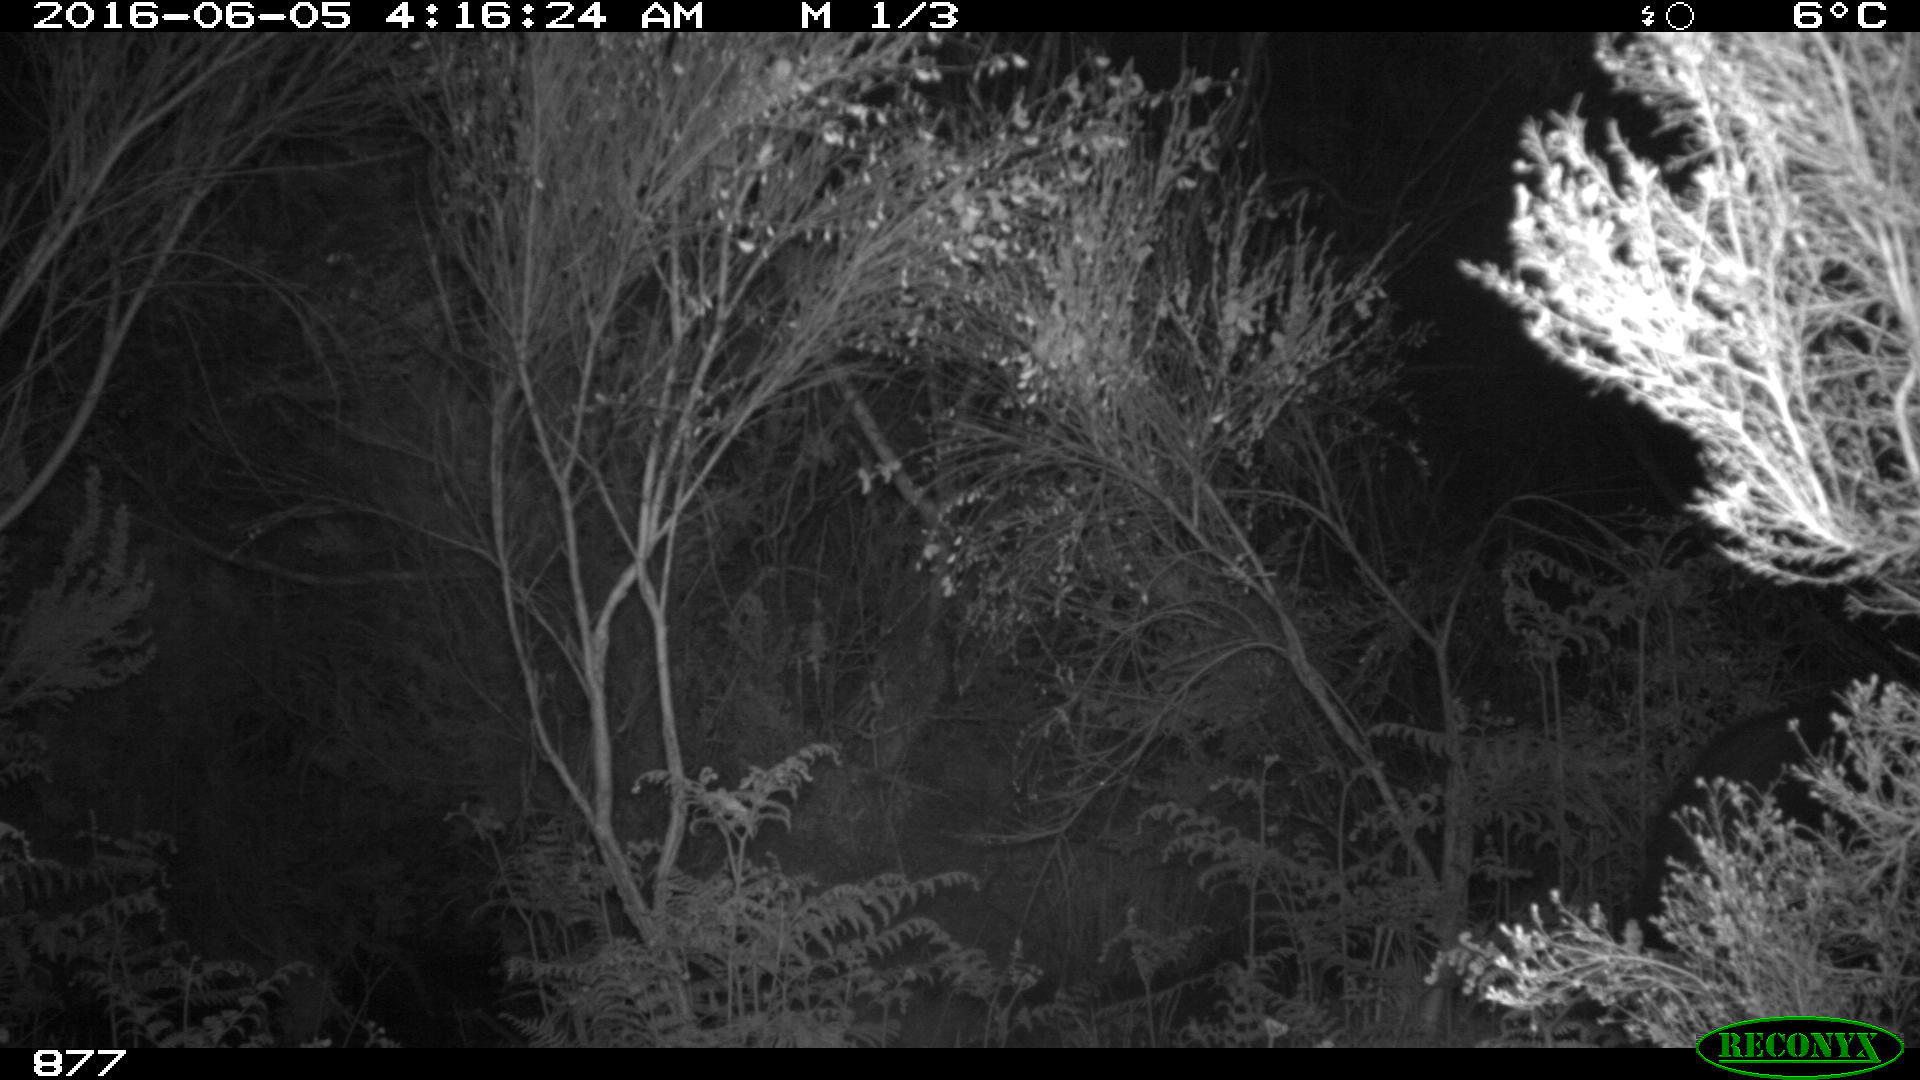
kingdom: Animalia
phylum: Chordata
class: Mammalia
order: Artiodactyla
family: Suidae
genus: Sus
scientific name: Sus scrofa
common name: Wild boar
